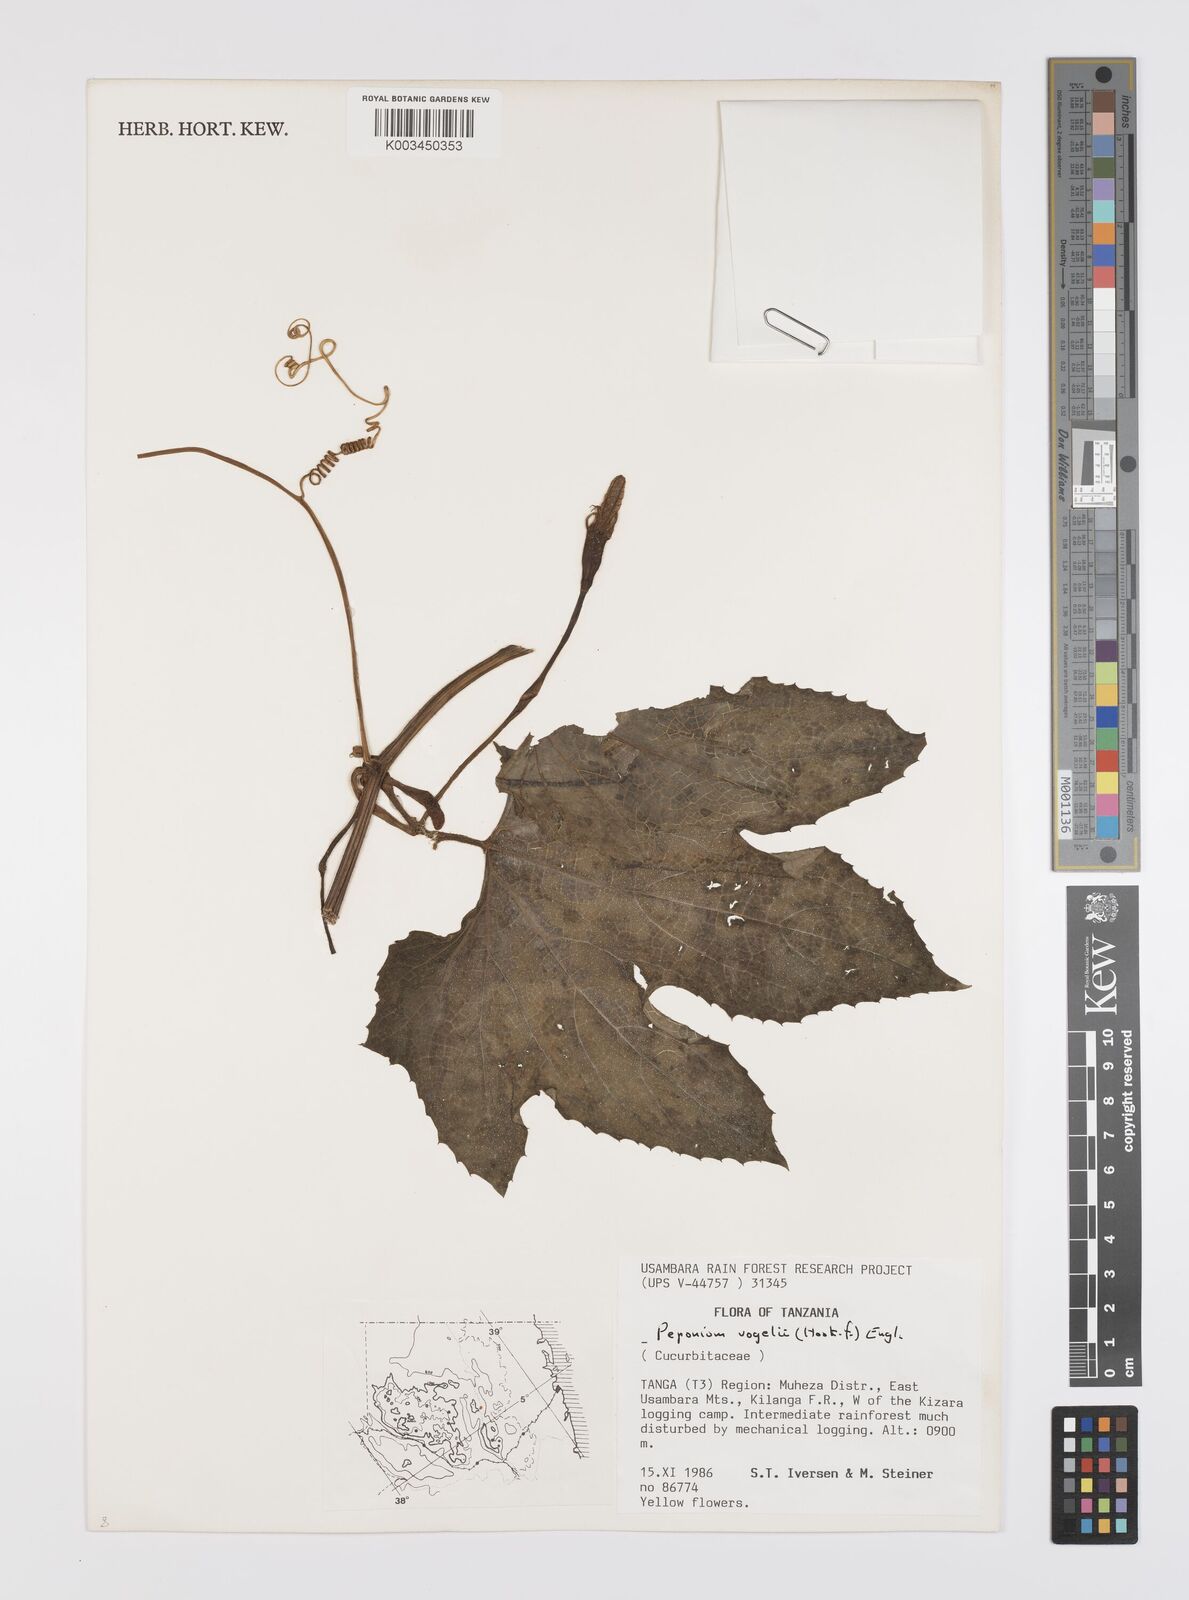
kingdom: Plantae
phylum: Tracheophyta
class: Magnoliopsida
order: Cucurbitales
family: Cucurbitaceae
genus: Peponium
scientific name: Peponium vogelii
